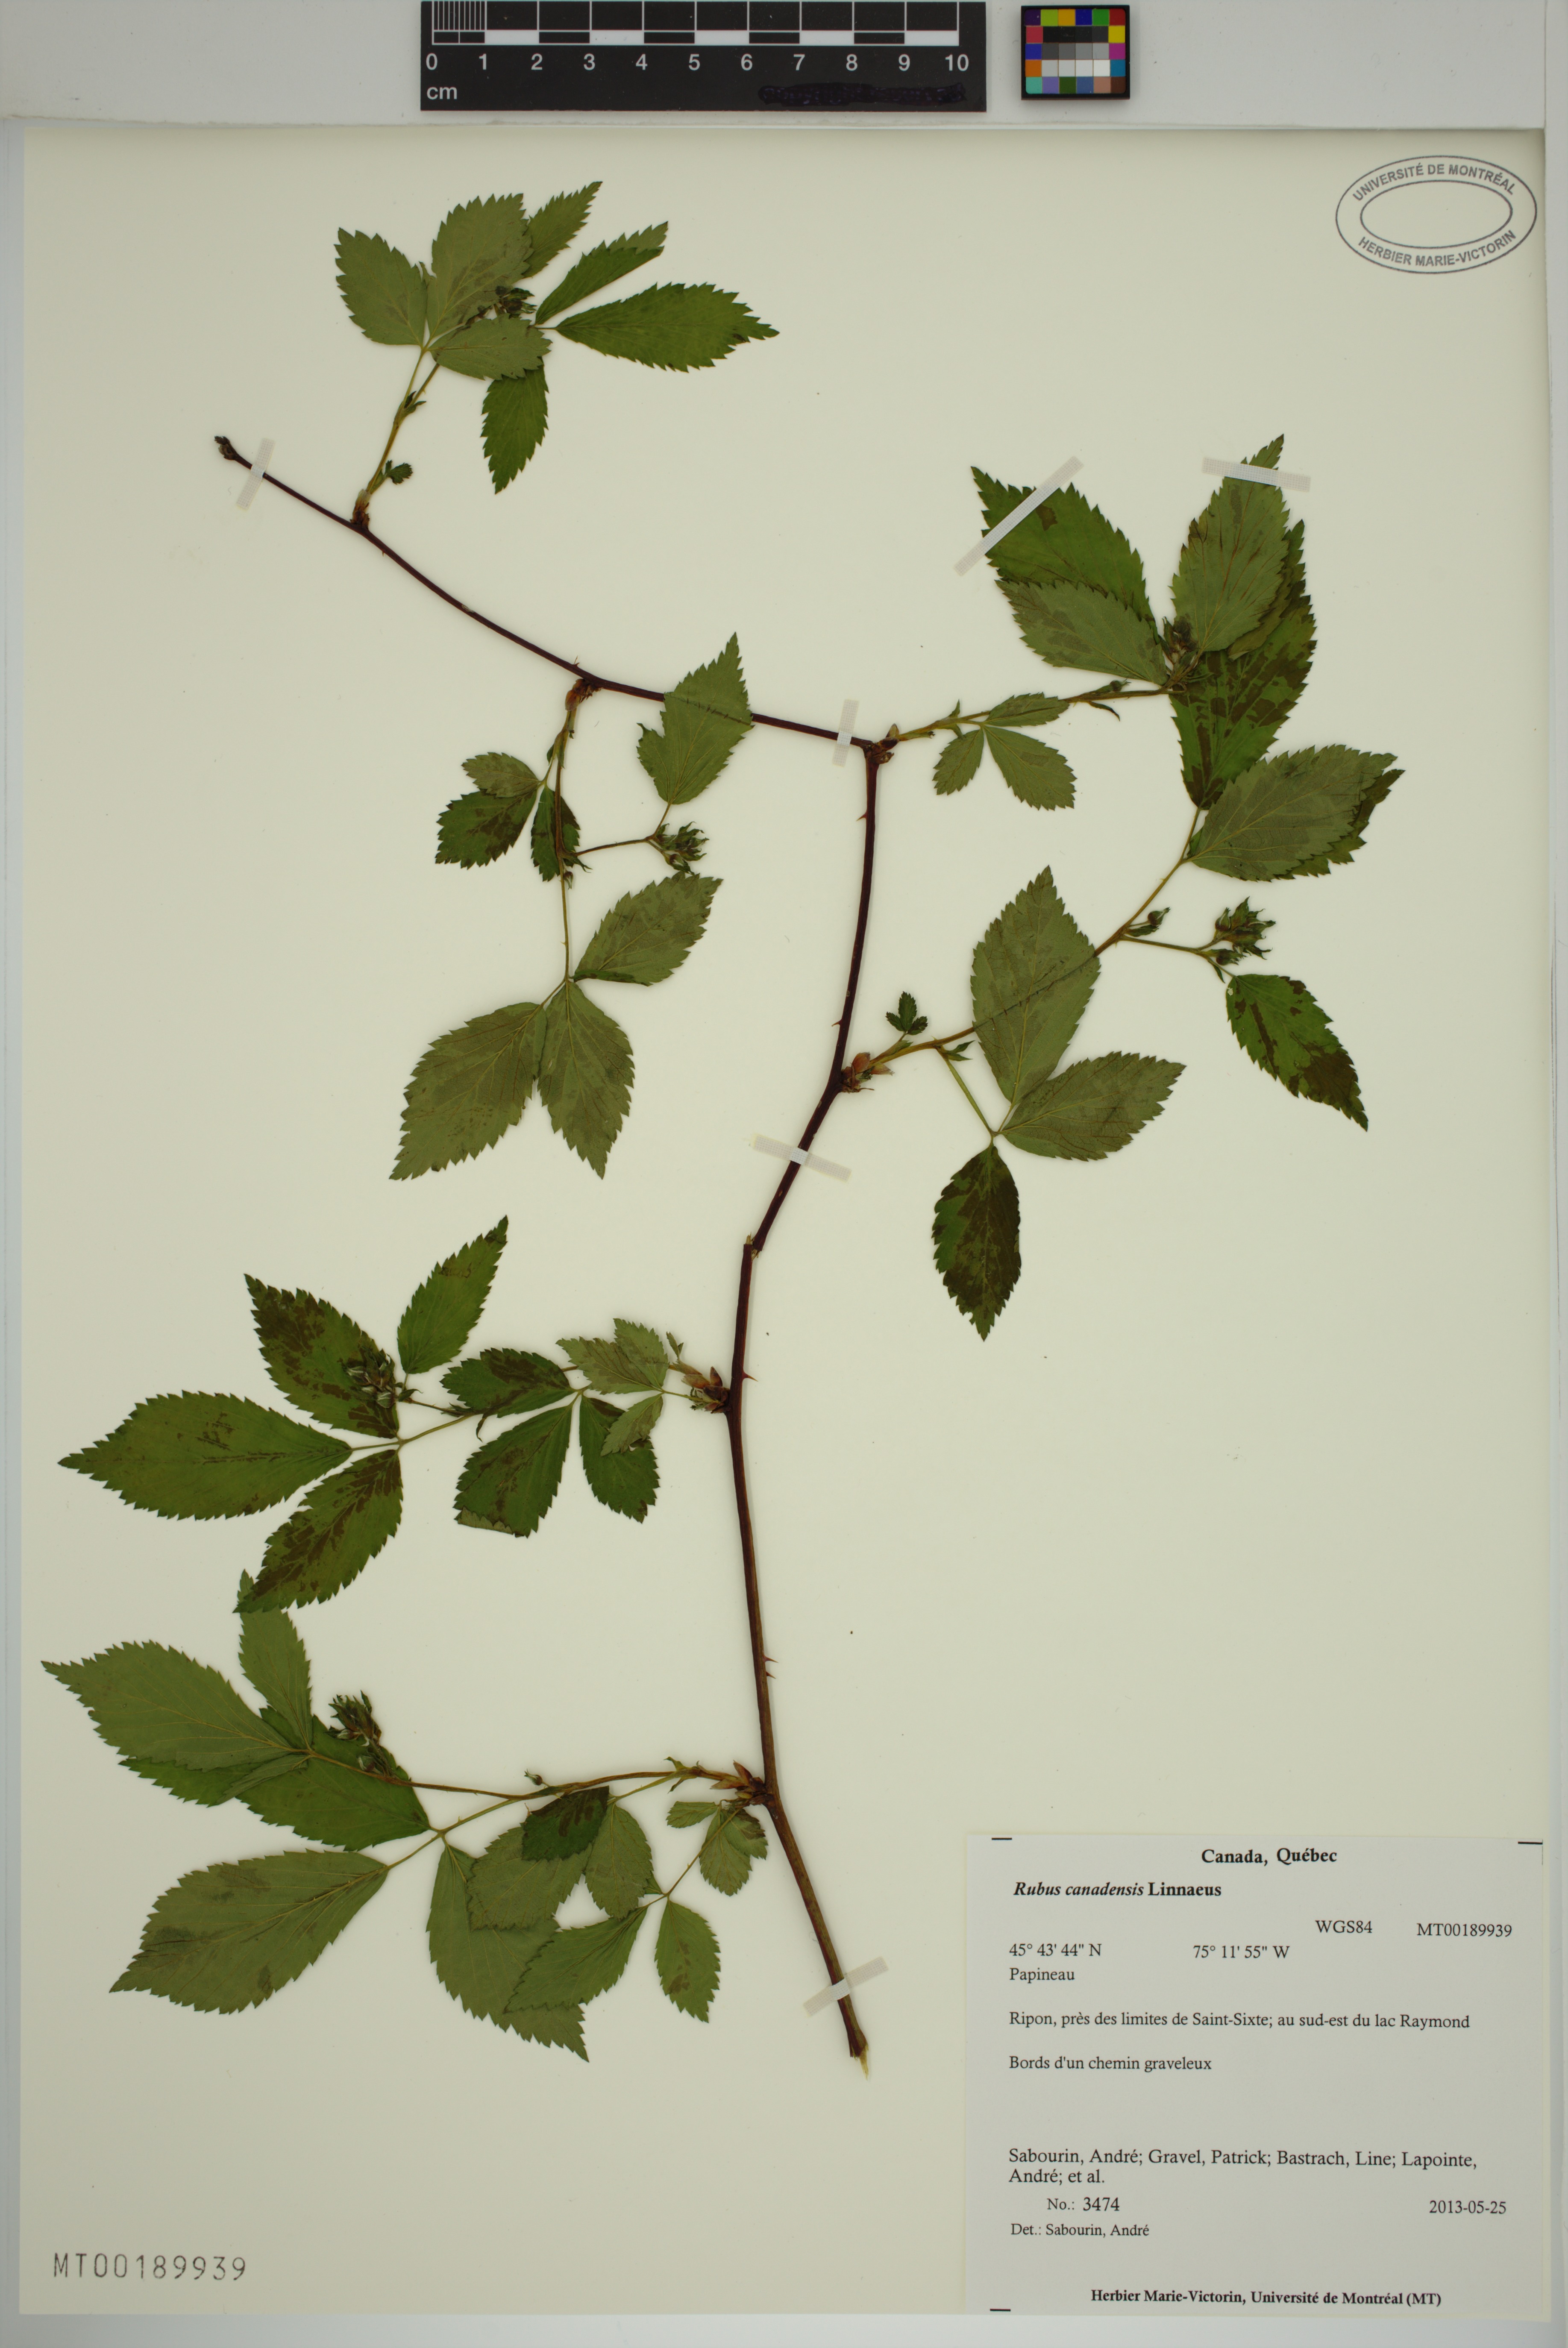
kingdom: Plantae
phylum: Tracheophyta
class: Magnoliopsida
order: Rosales
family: Rosaceae
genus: Rubus
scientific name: Rubus canadensis
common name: Smooth blackberry
